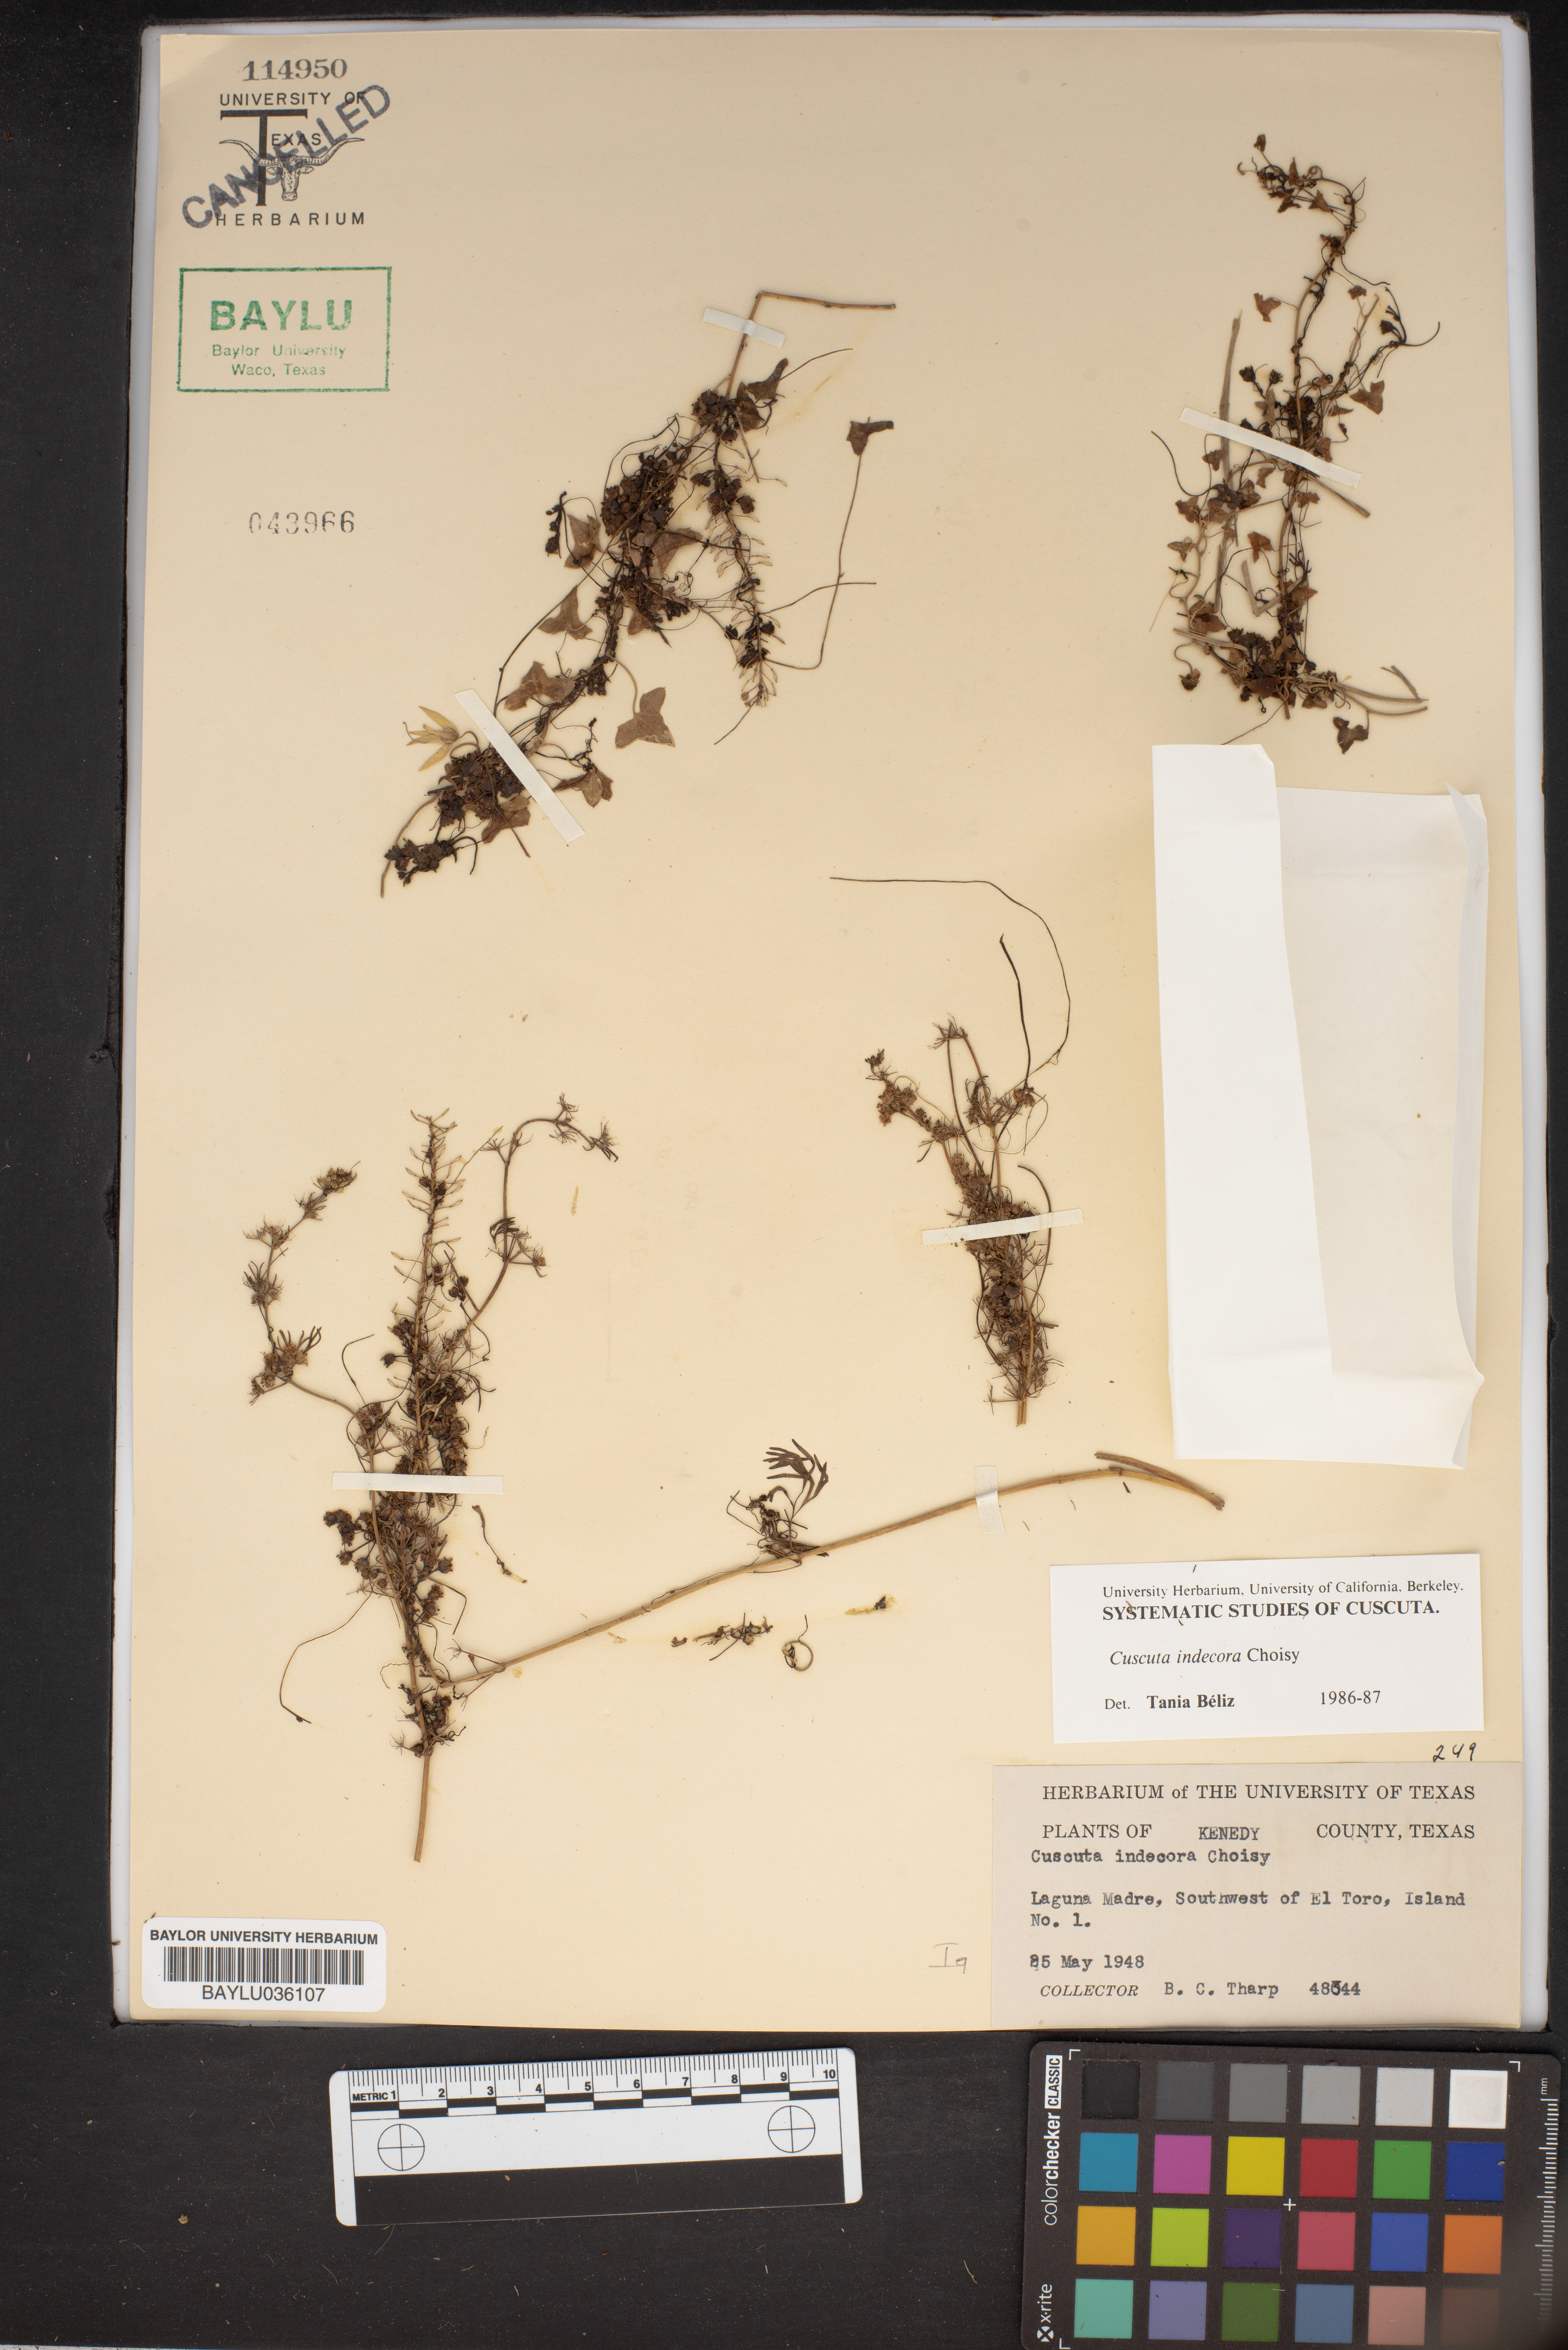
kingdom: Plantae
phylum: Tracheophyta
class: Magnoliopsida
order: Solanales
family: Convolvulaceae
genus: Cuscuta
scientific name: Cuscuta indecora
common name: Large-seed dodder
